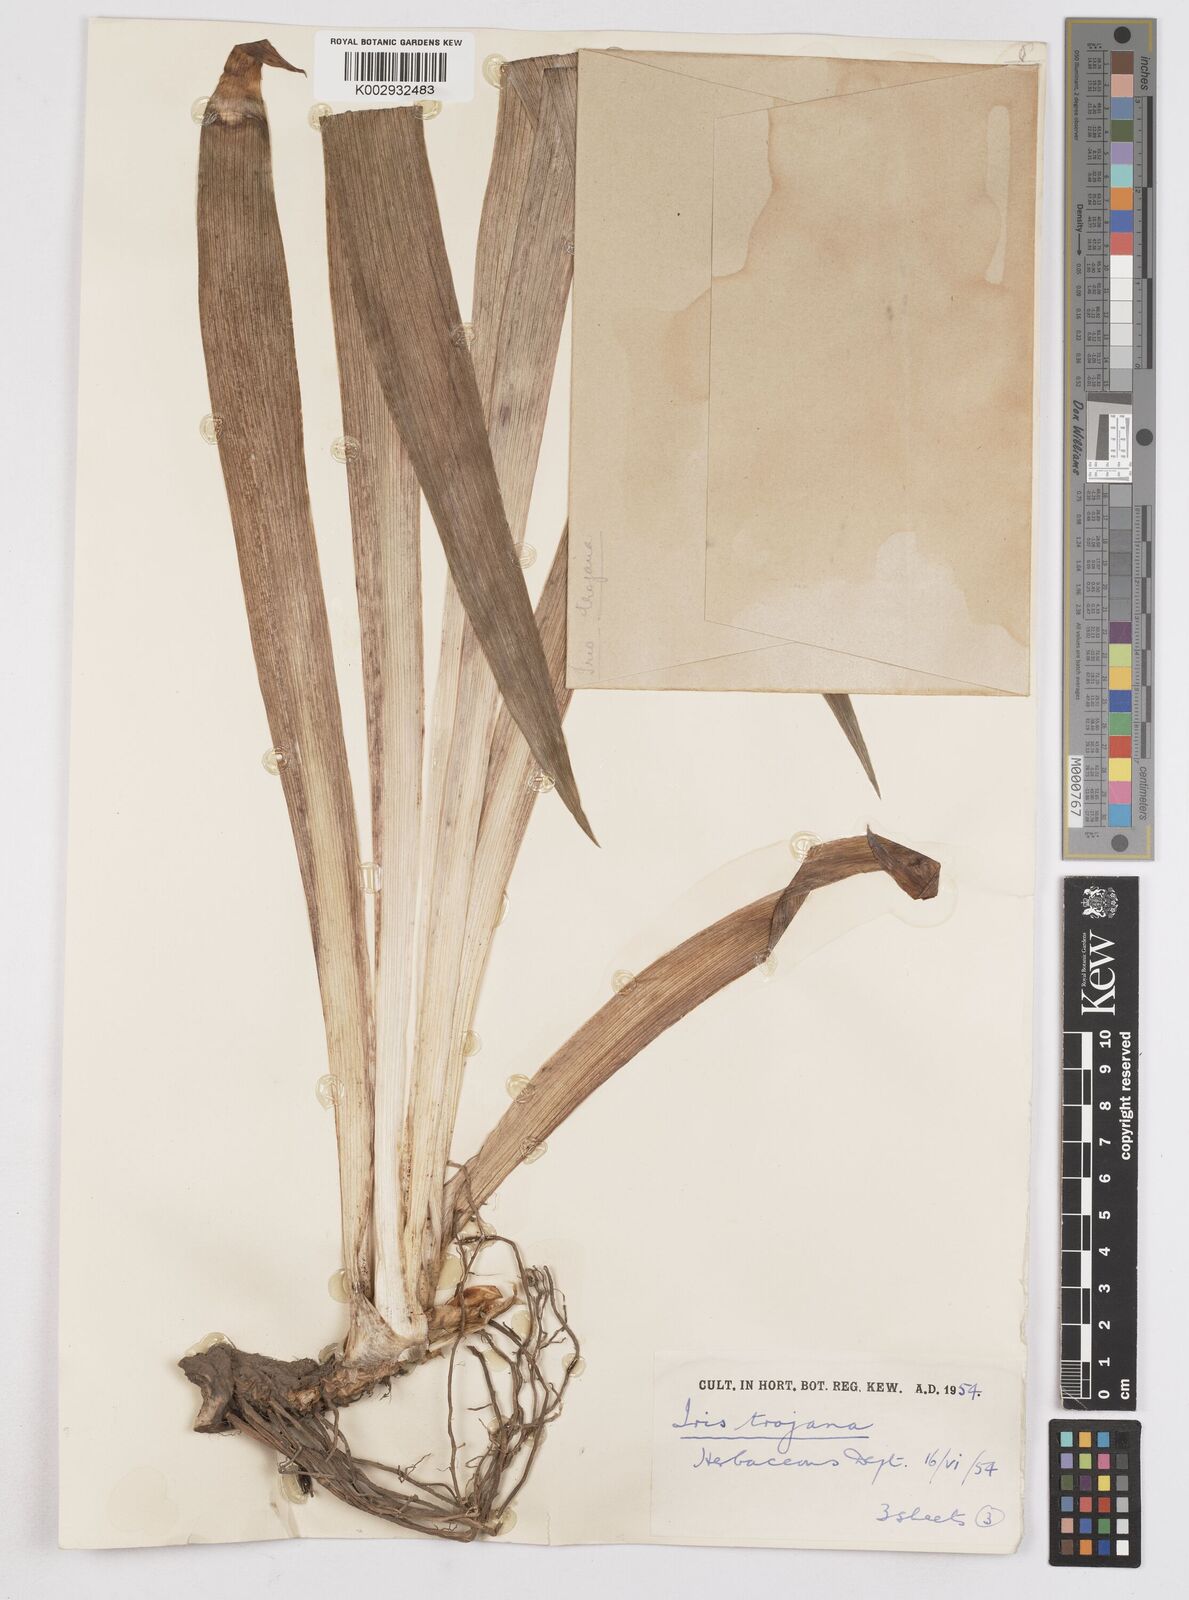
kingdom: Plantae
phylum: Tracheophyta
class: Liliopsida
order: Asparagales
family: Iridaceae
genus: Iris
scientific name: Iris
